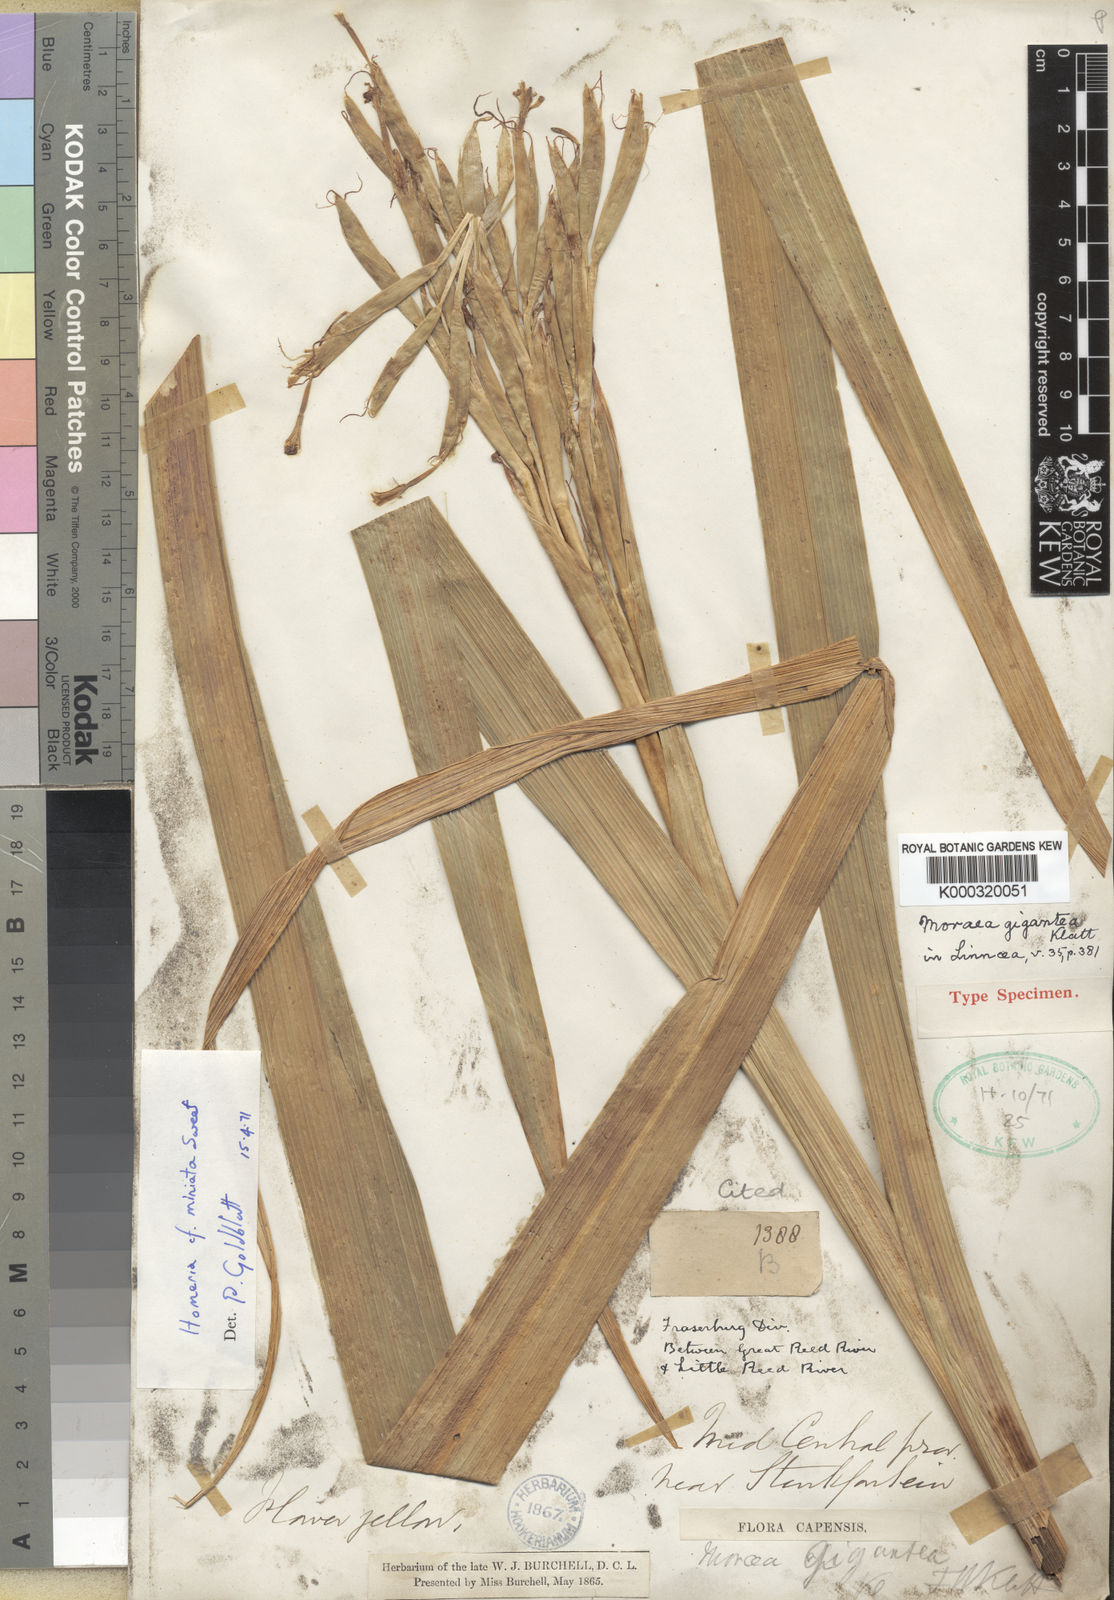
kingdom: Plantae
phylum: Tracheophyta
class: Liliopsida
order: Asparagales
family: Iridaceae
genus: Moraea
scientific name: Moraea miniata
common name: Two-leaf cape-tulip
